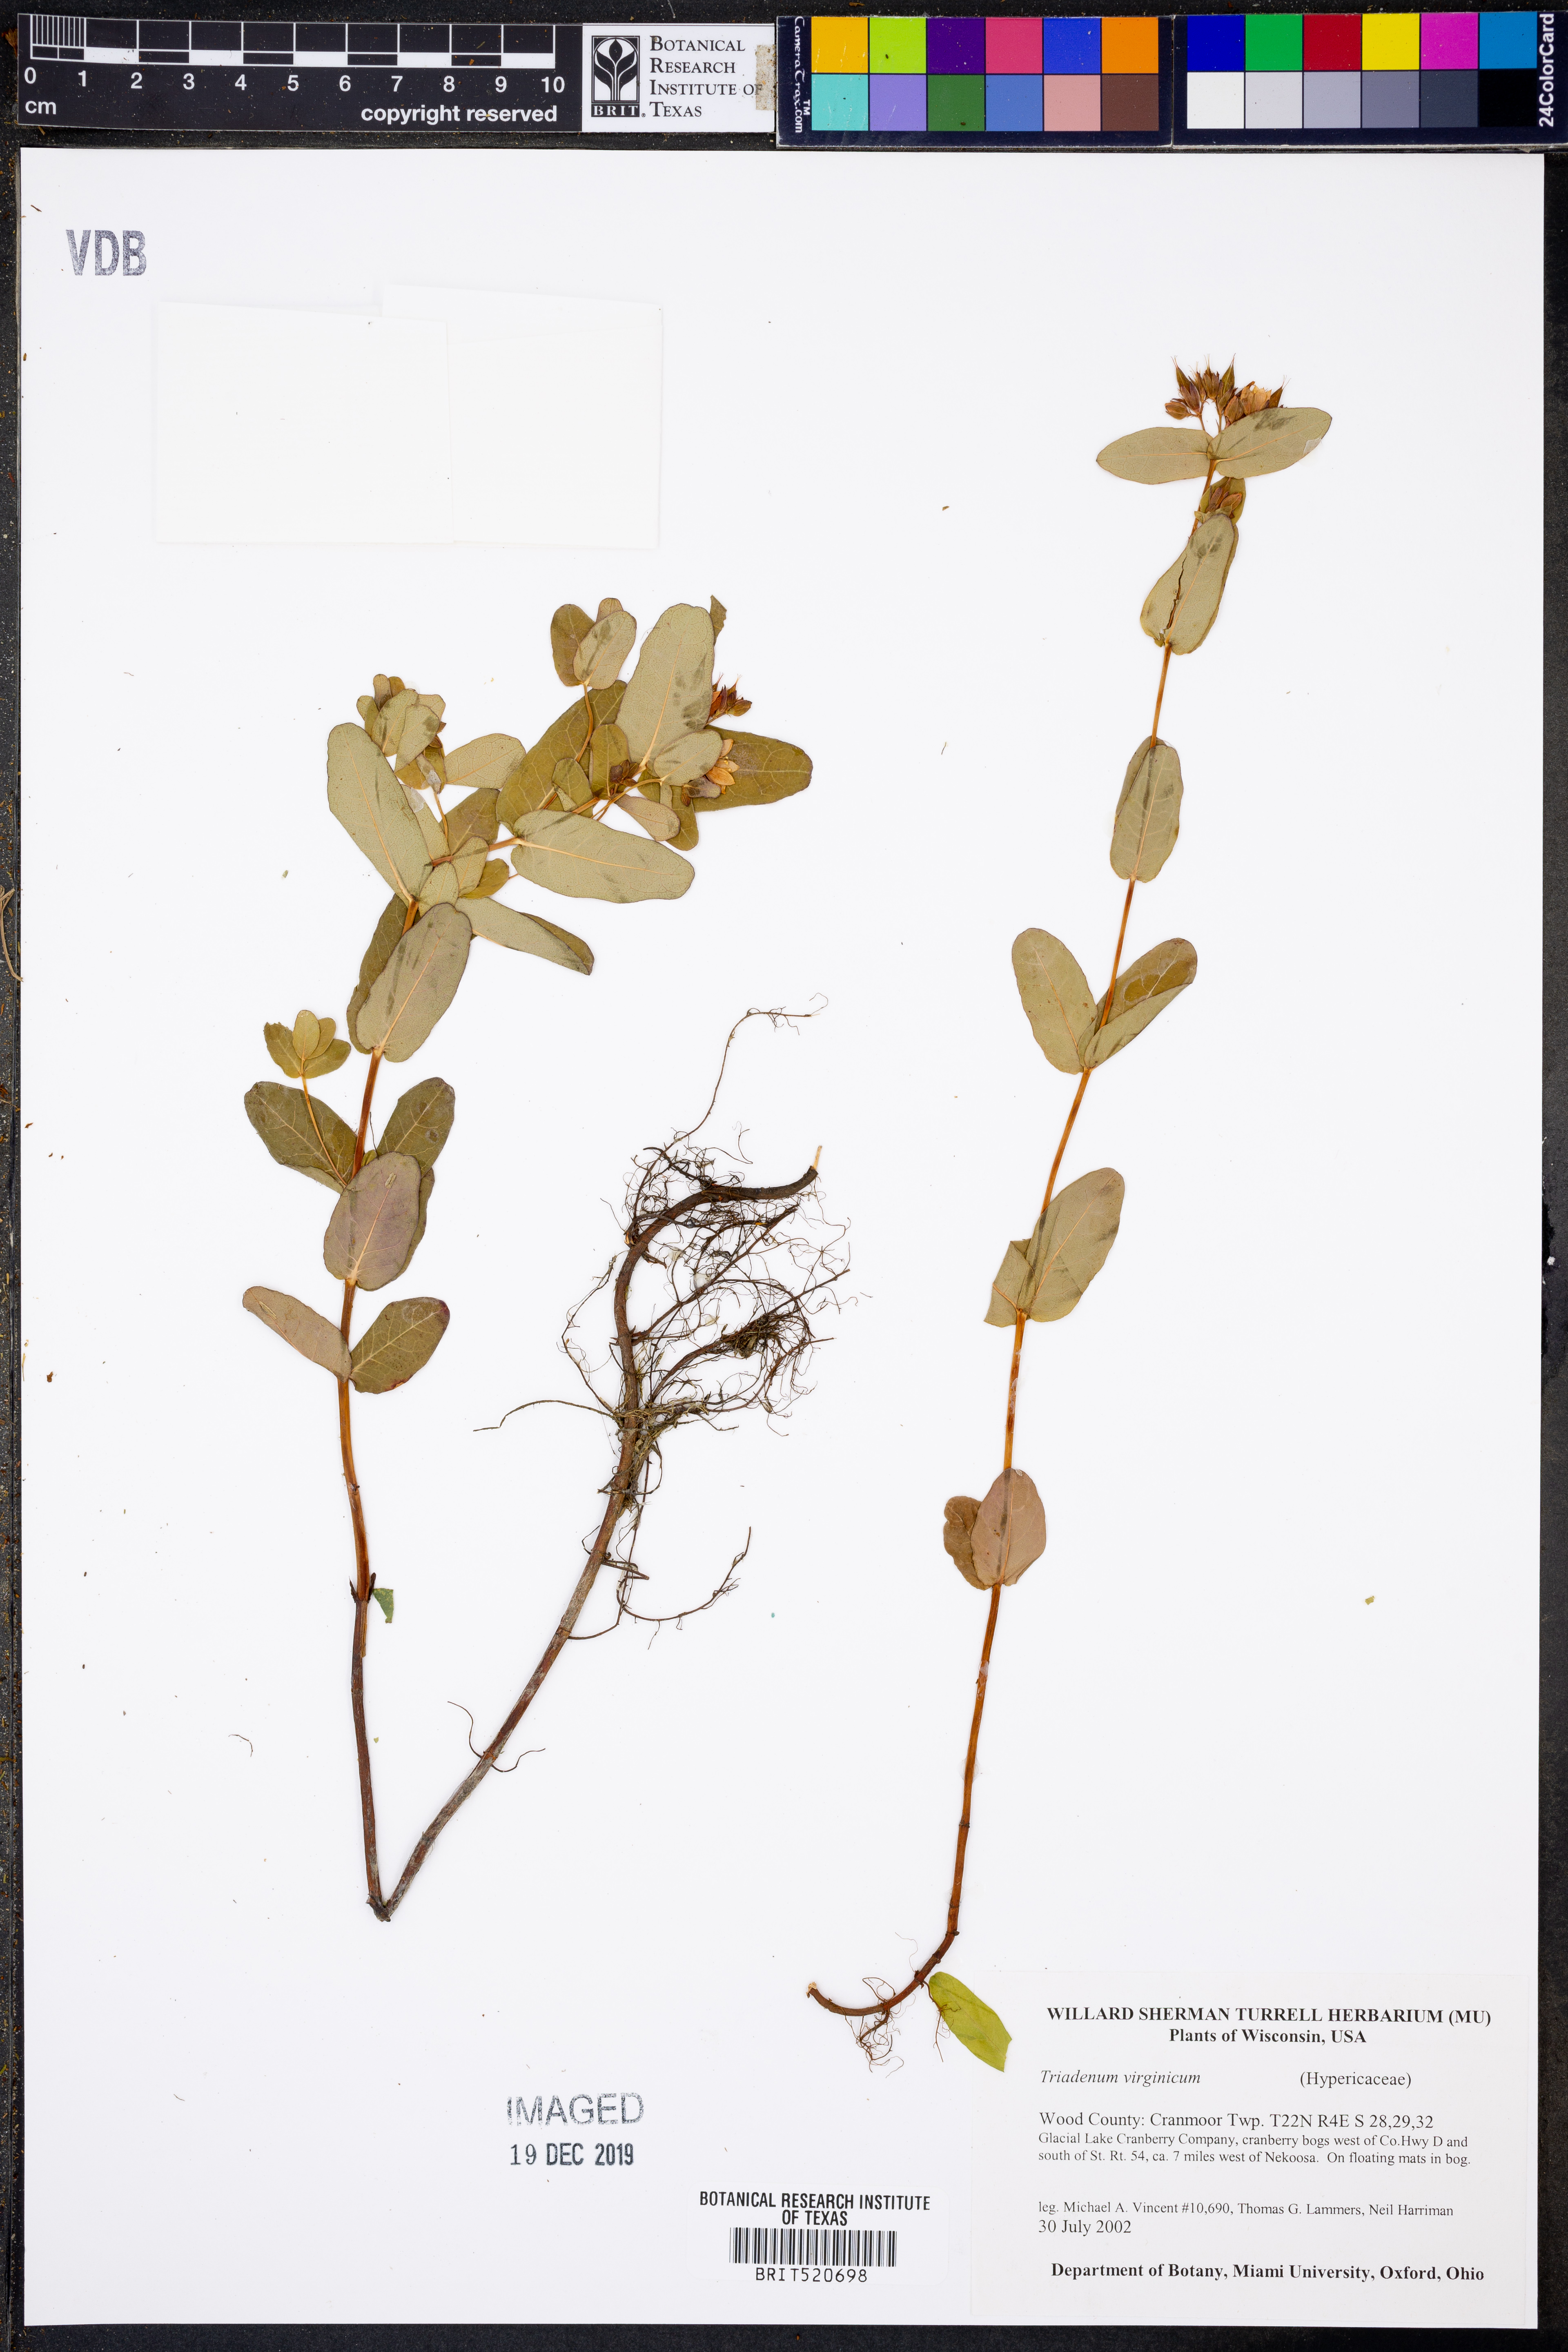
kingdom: Plantae
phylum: Tracheophyta
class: Magnoliopsida
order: Malpighiales
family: Hypericaceae
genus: Triadenum
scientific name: Triadenum virginicum
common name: Marsh st. john's-wort
